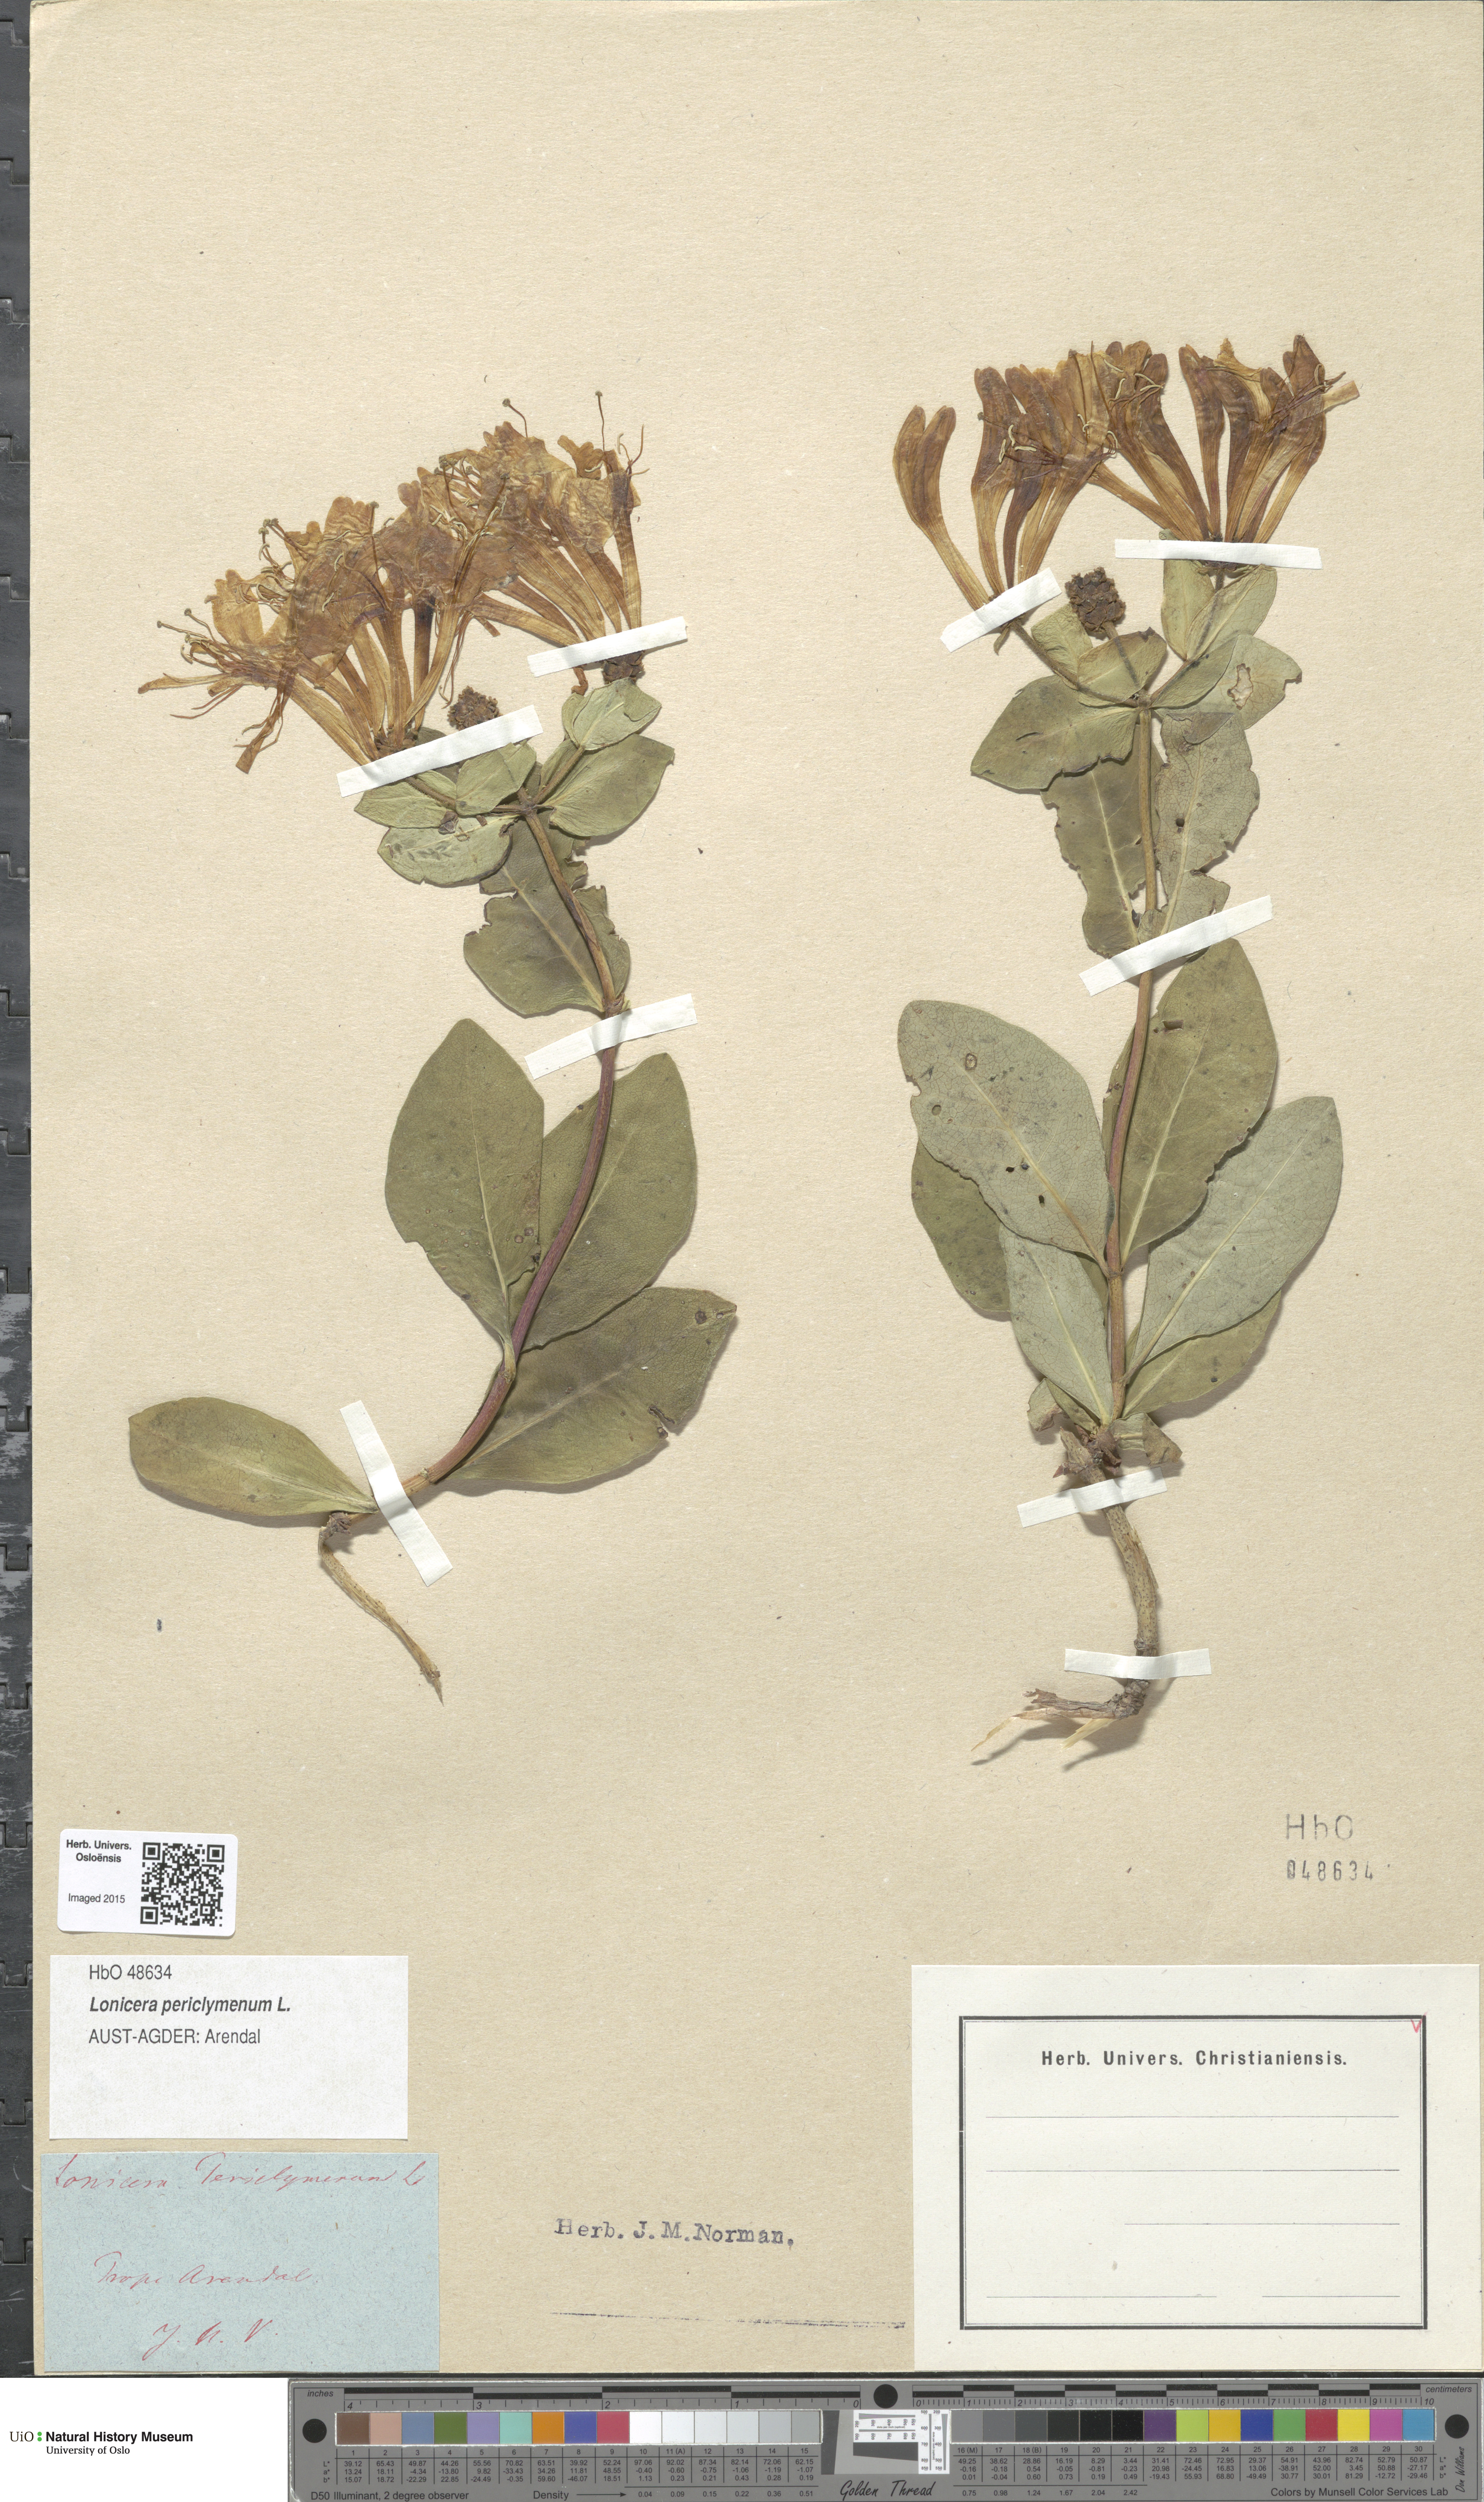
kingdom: Plantae
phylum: Tracheophyta
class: Magnoliopsida
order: Dipsacales
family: Caprifoliaceae
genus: Lonicera
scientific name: Lonicera periclymenum
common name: European honeysuckle
